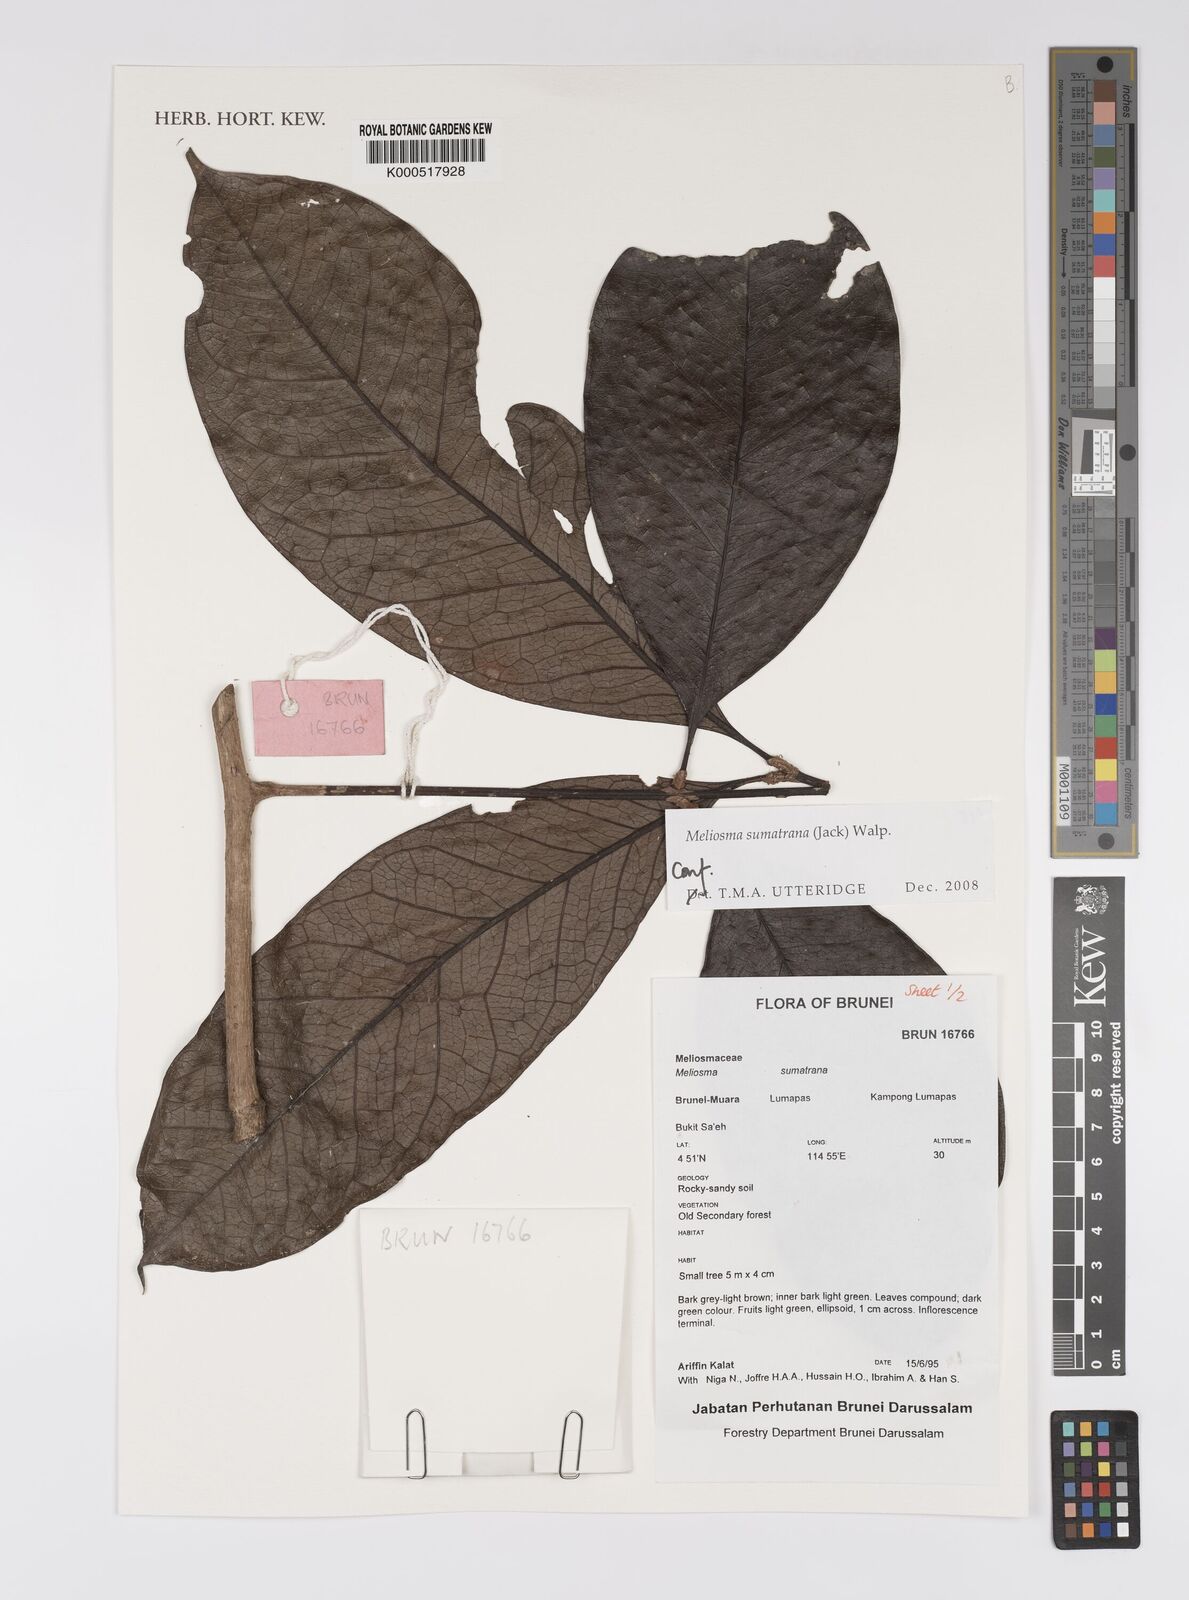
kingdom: Plantae
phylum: Tracheophyta
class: Magnoliopsida
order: Proteales
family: Sabiaceae
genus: Meliosma
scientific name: Meliosma sumatrana
